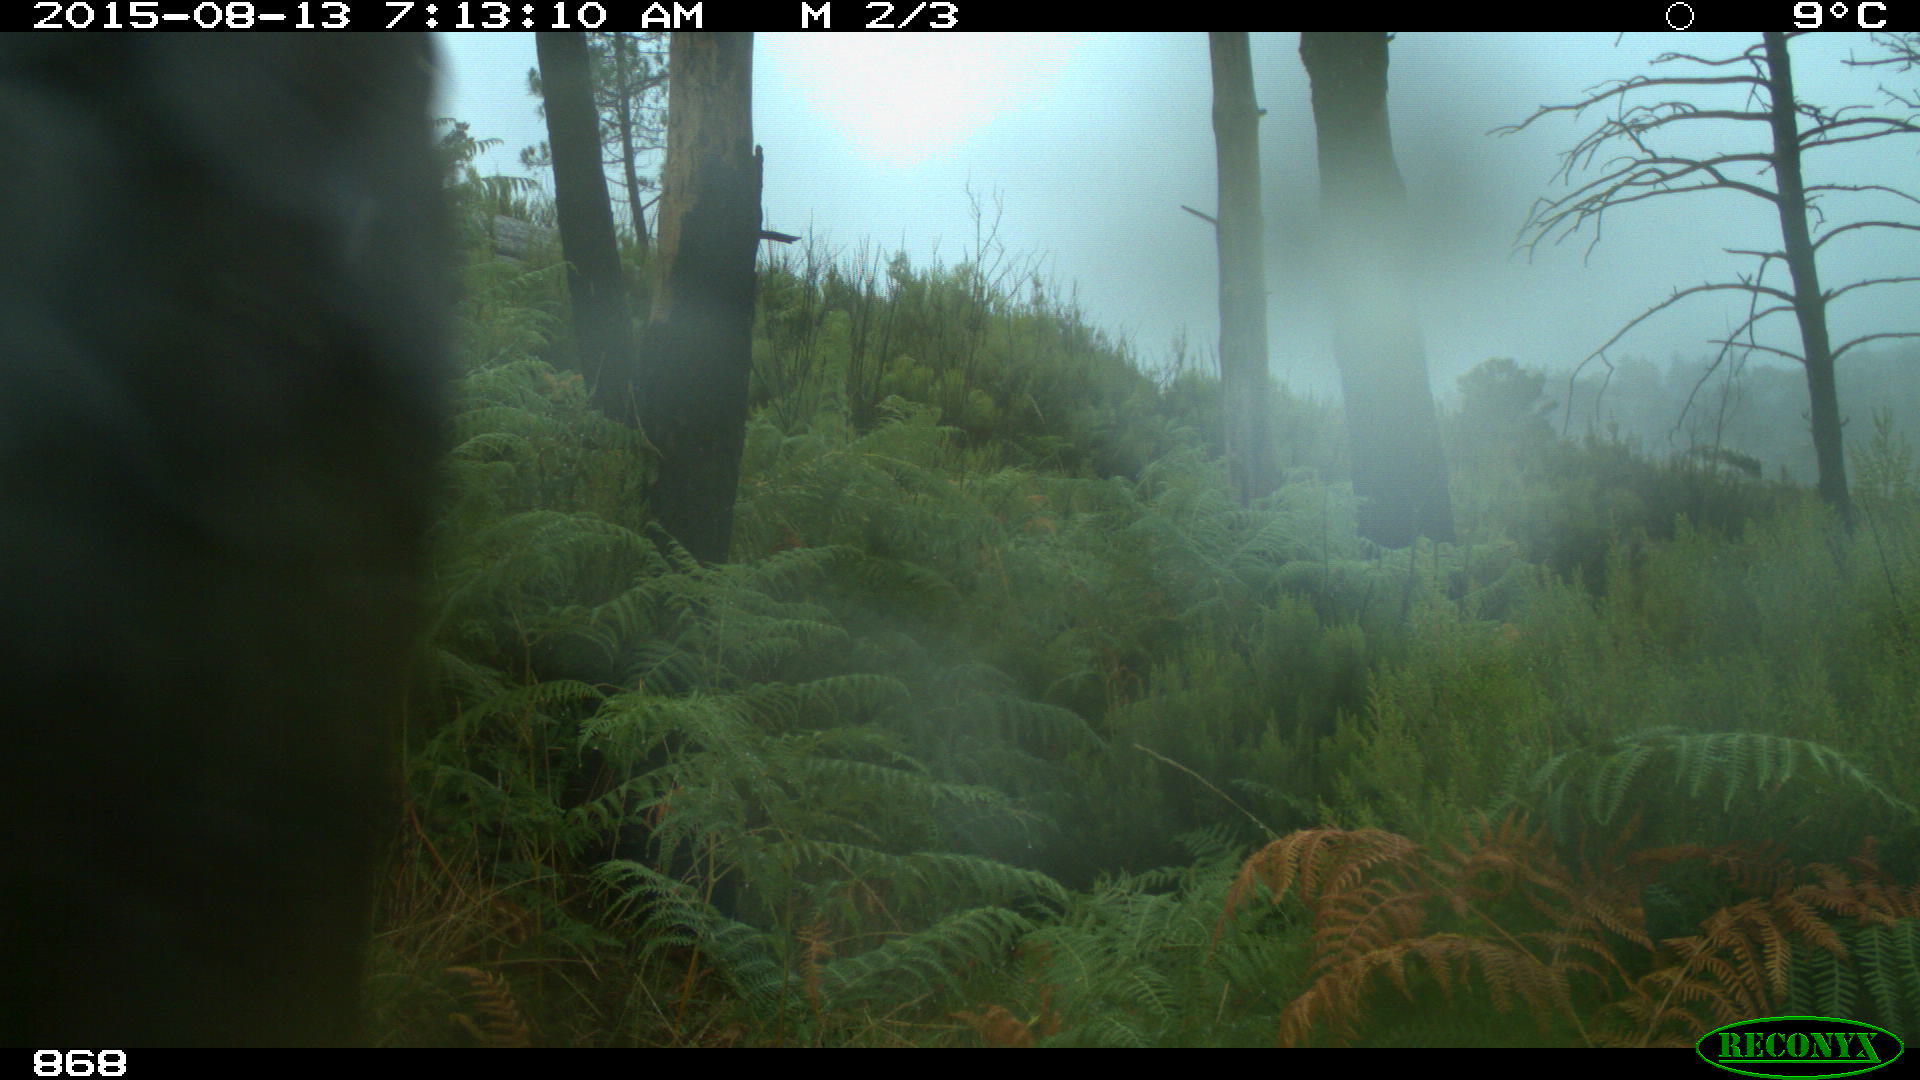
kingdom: Animalia
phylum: Chordata
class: Mammalia
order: Artiodactyla
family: Bovidae
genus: Bos
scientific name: Bos taurus
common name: Domesticated cattle
